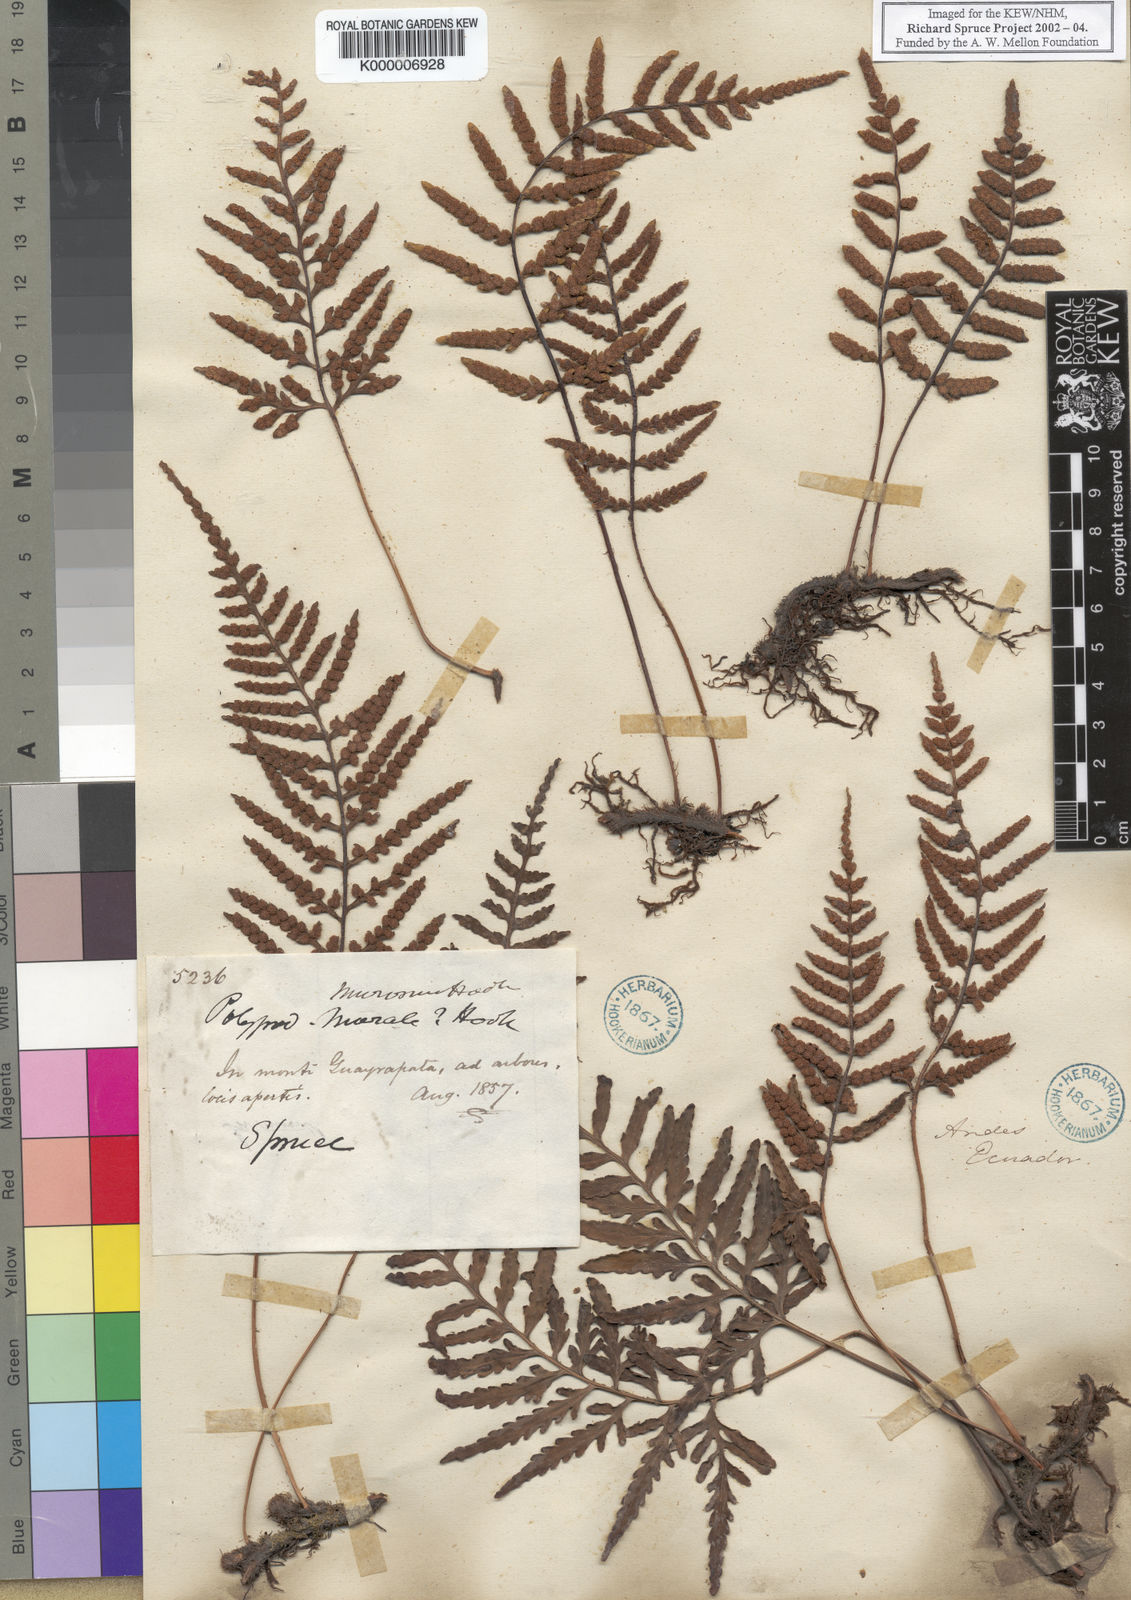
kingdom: Plantae
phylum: Tracheophyta
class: Polypodiopsida
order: Polypodiales
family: Polypodiaceae
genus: Pleopeltis
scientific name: Pleopeltis murora
